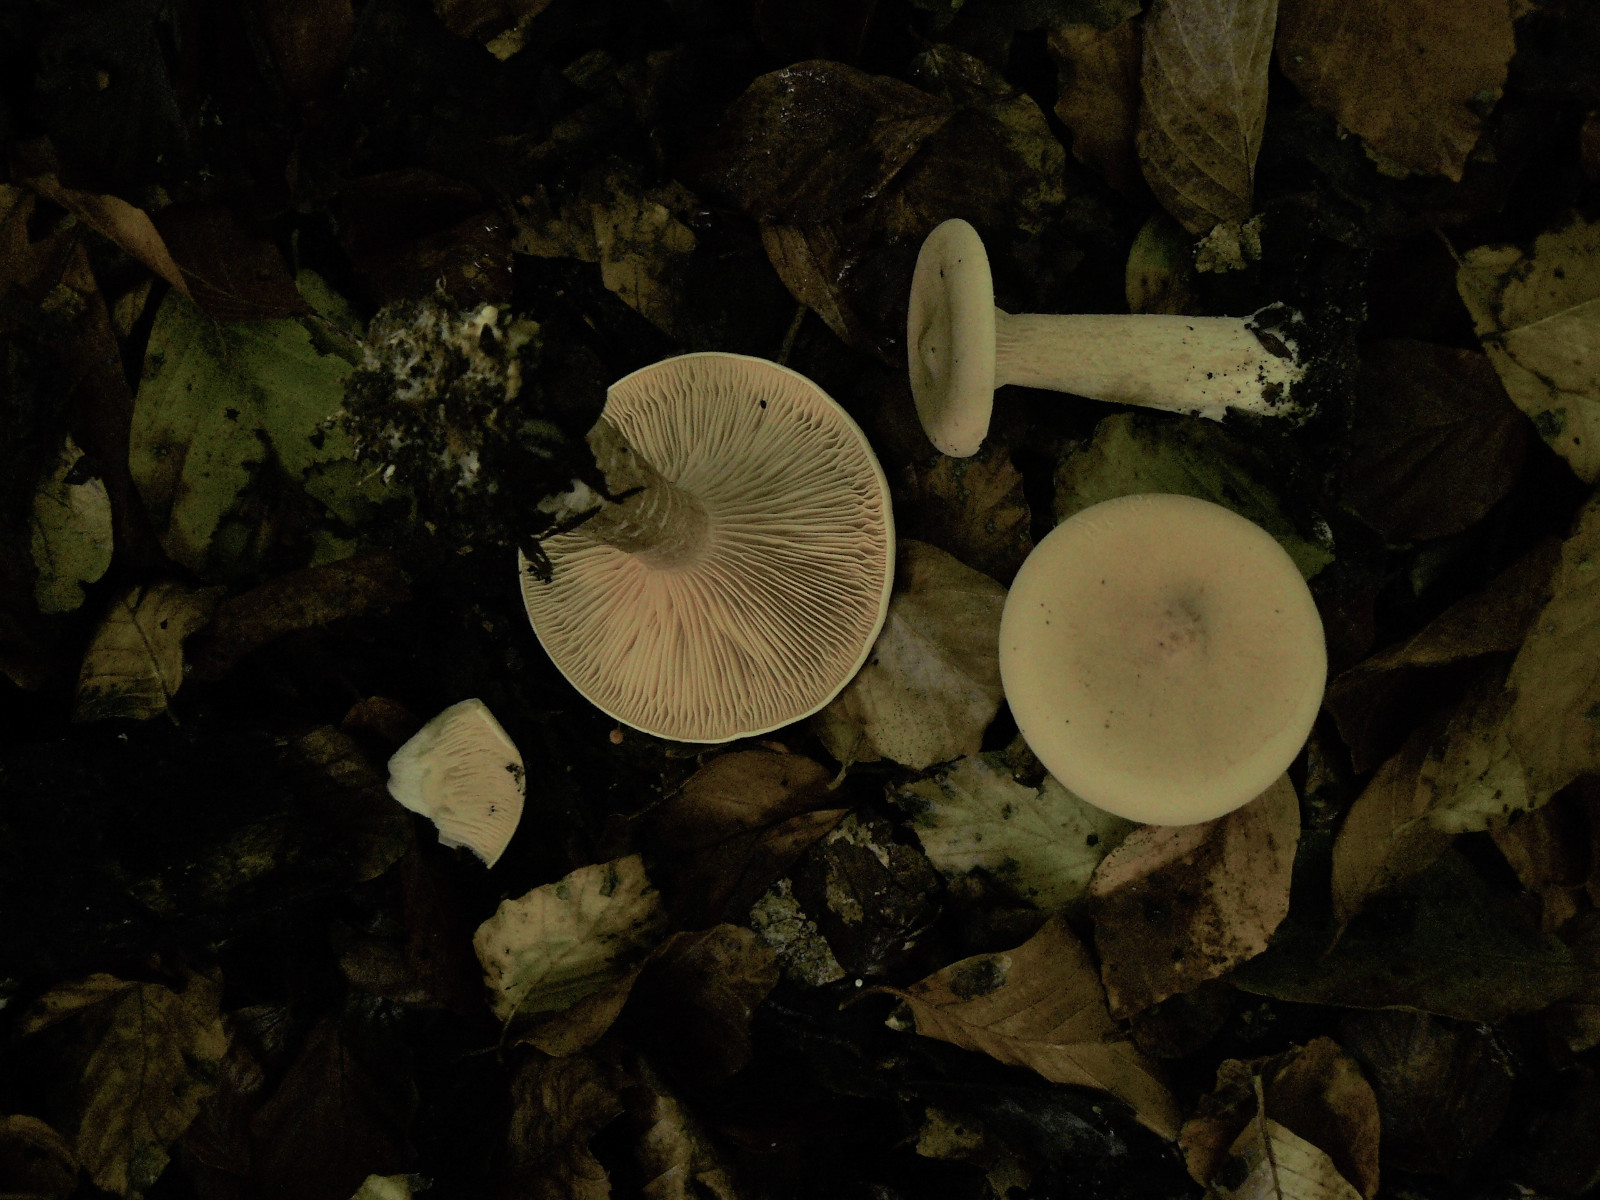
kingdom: Fungi
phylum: Basidiomycota
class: Agaricomycetes
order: Agaricales
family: Tricholomataceae
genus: Infundibulicybe
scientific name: Infundibulicybe geotropa
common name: stor tragthat
